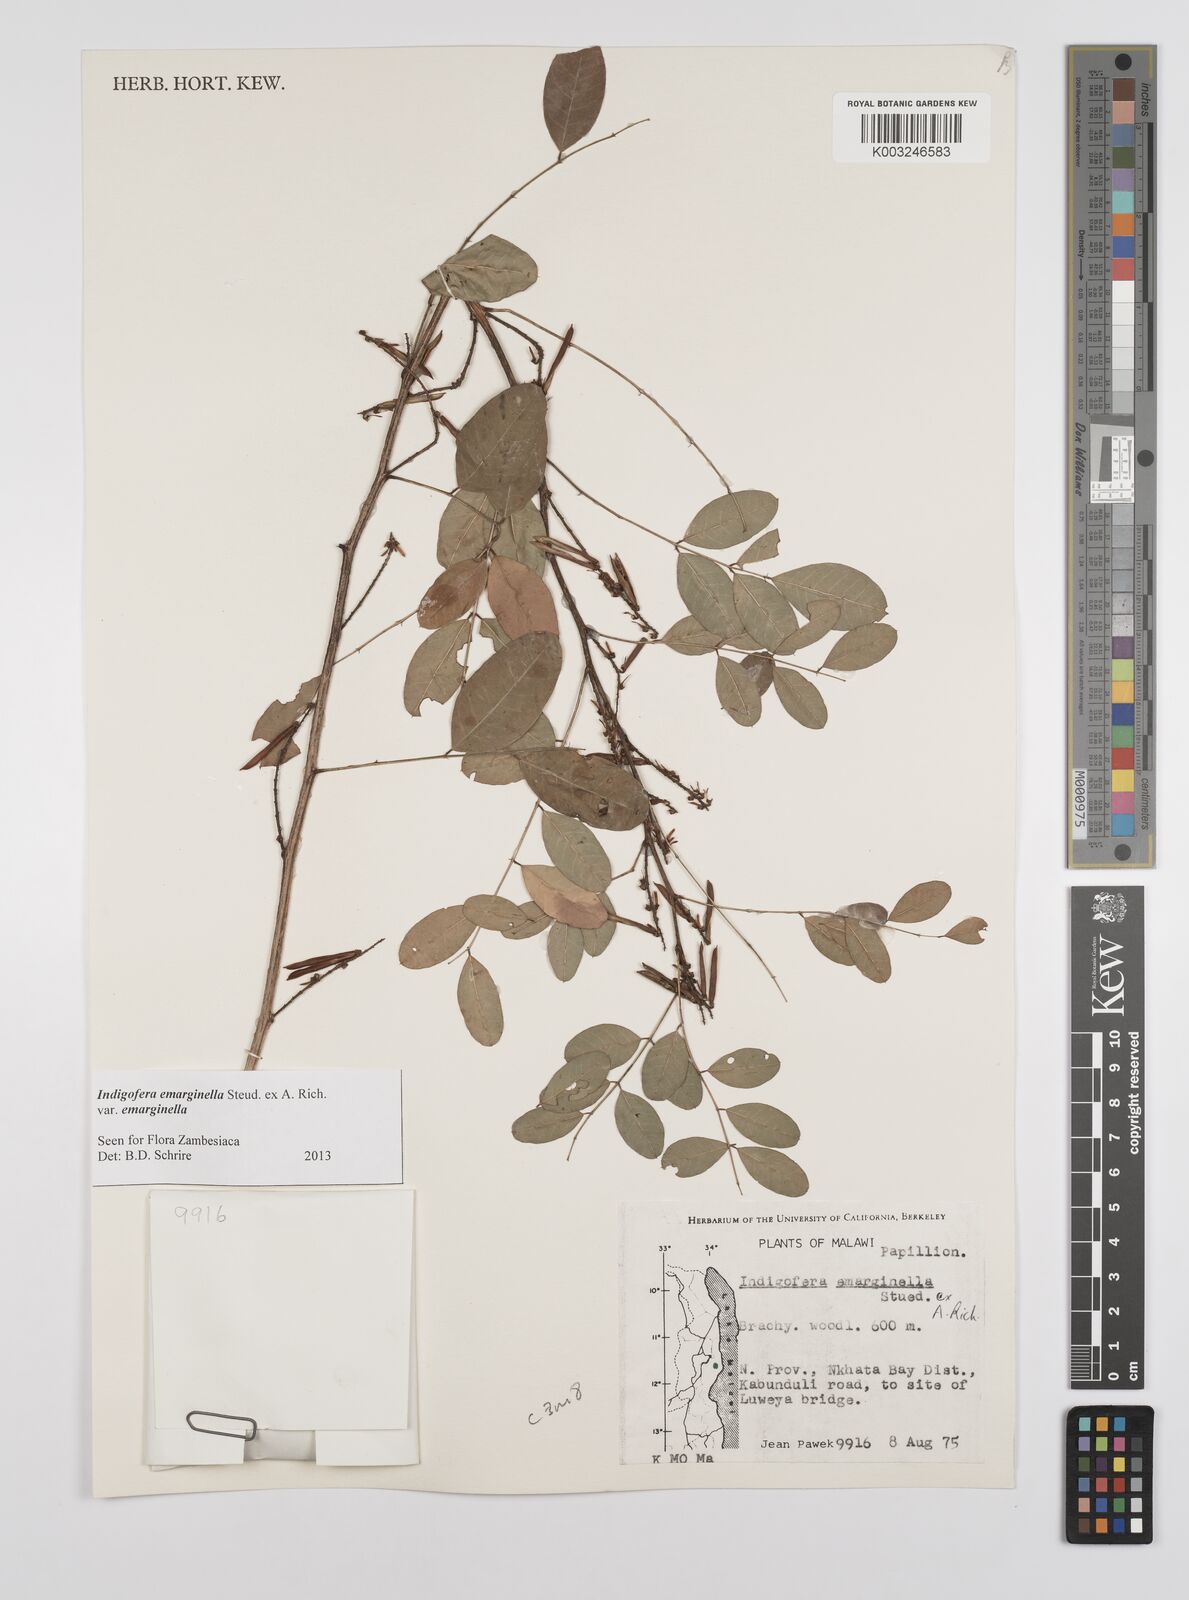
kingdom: Plantae
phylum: Tracheophyta
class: Magnoliopsida
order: Fabales
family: Fabaceae
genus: Indigofera
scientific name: Indigofera emarginella
